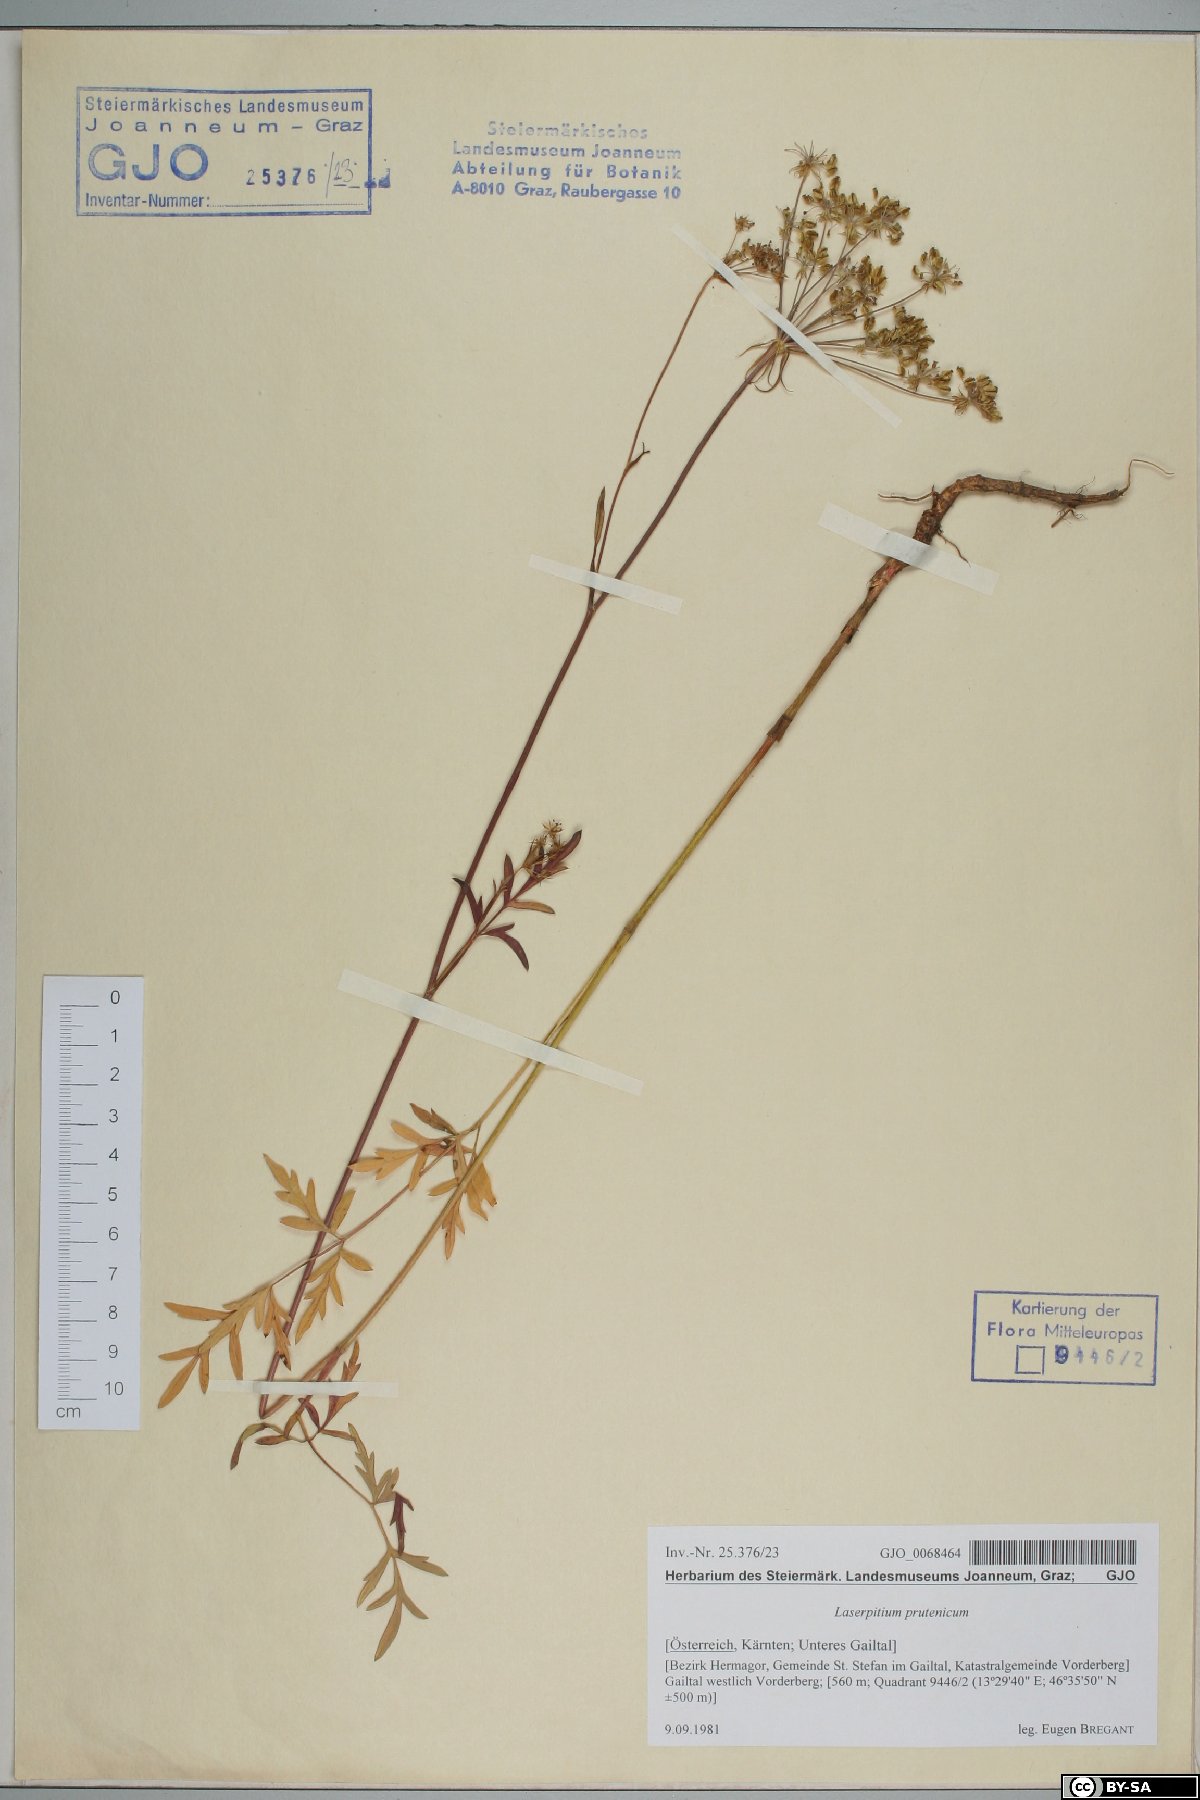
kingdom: Plantae
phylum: Tracheophyta
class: Magnoliopsida
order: Apiales
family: Apiaceae
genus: Silphiodaucus
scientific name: Silphiodaucus prutenicus
